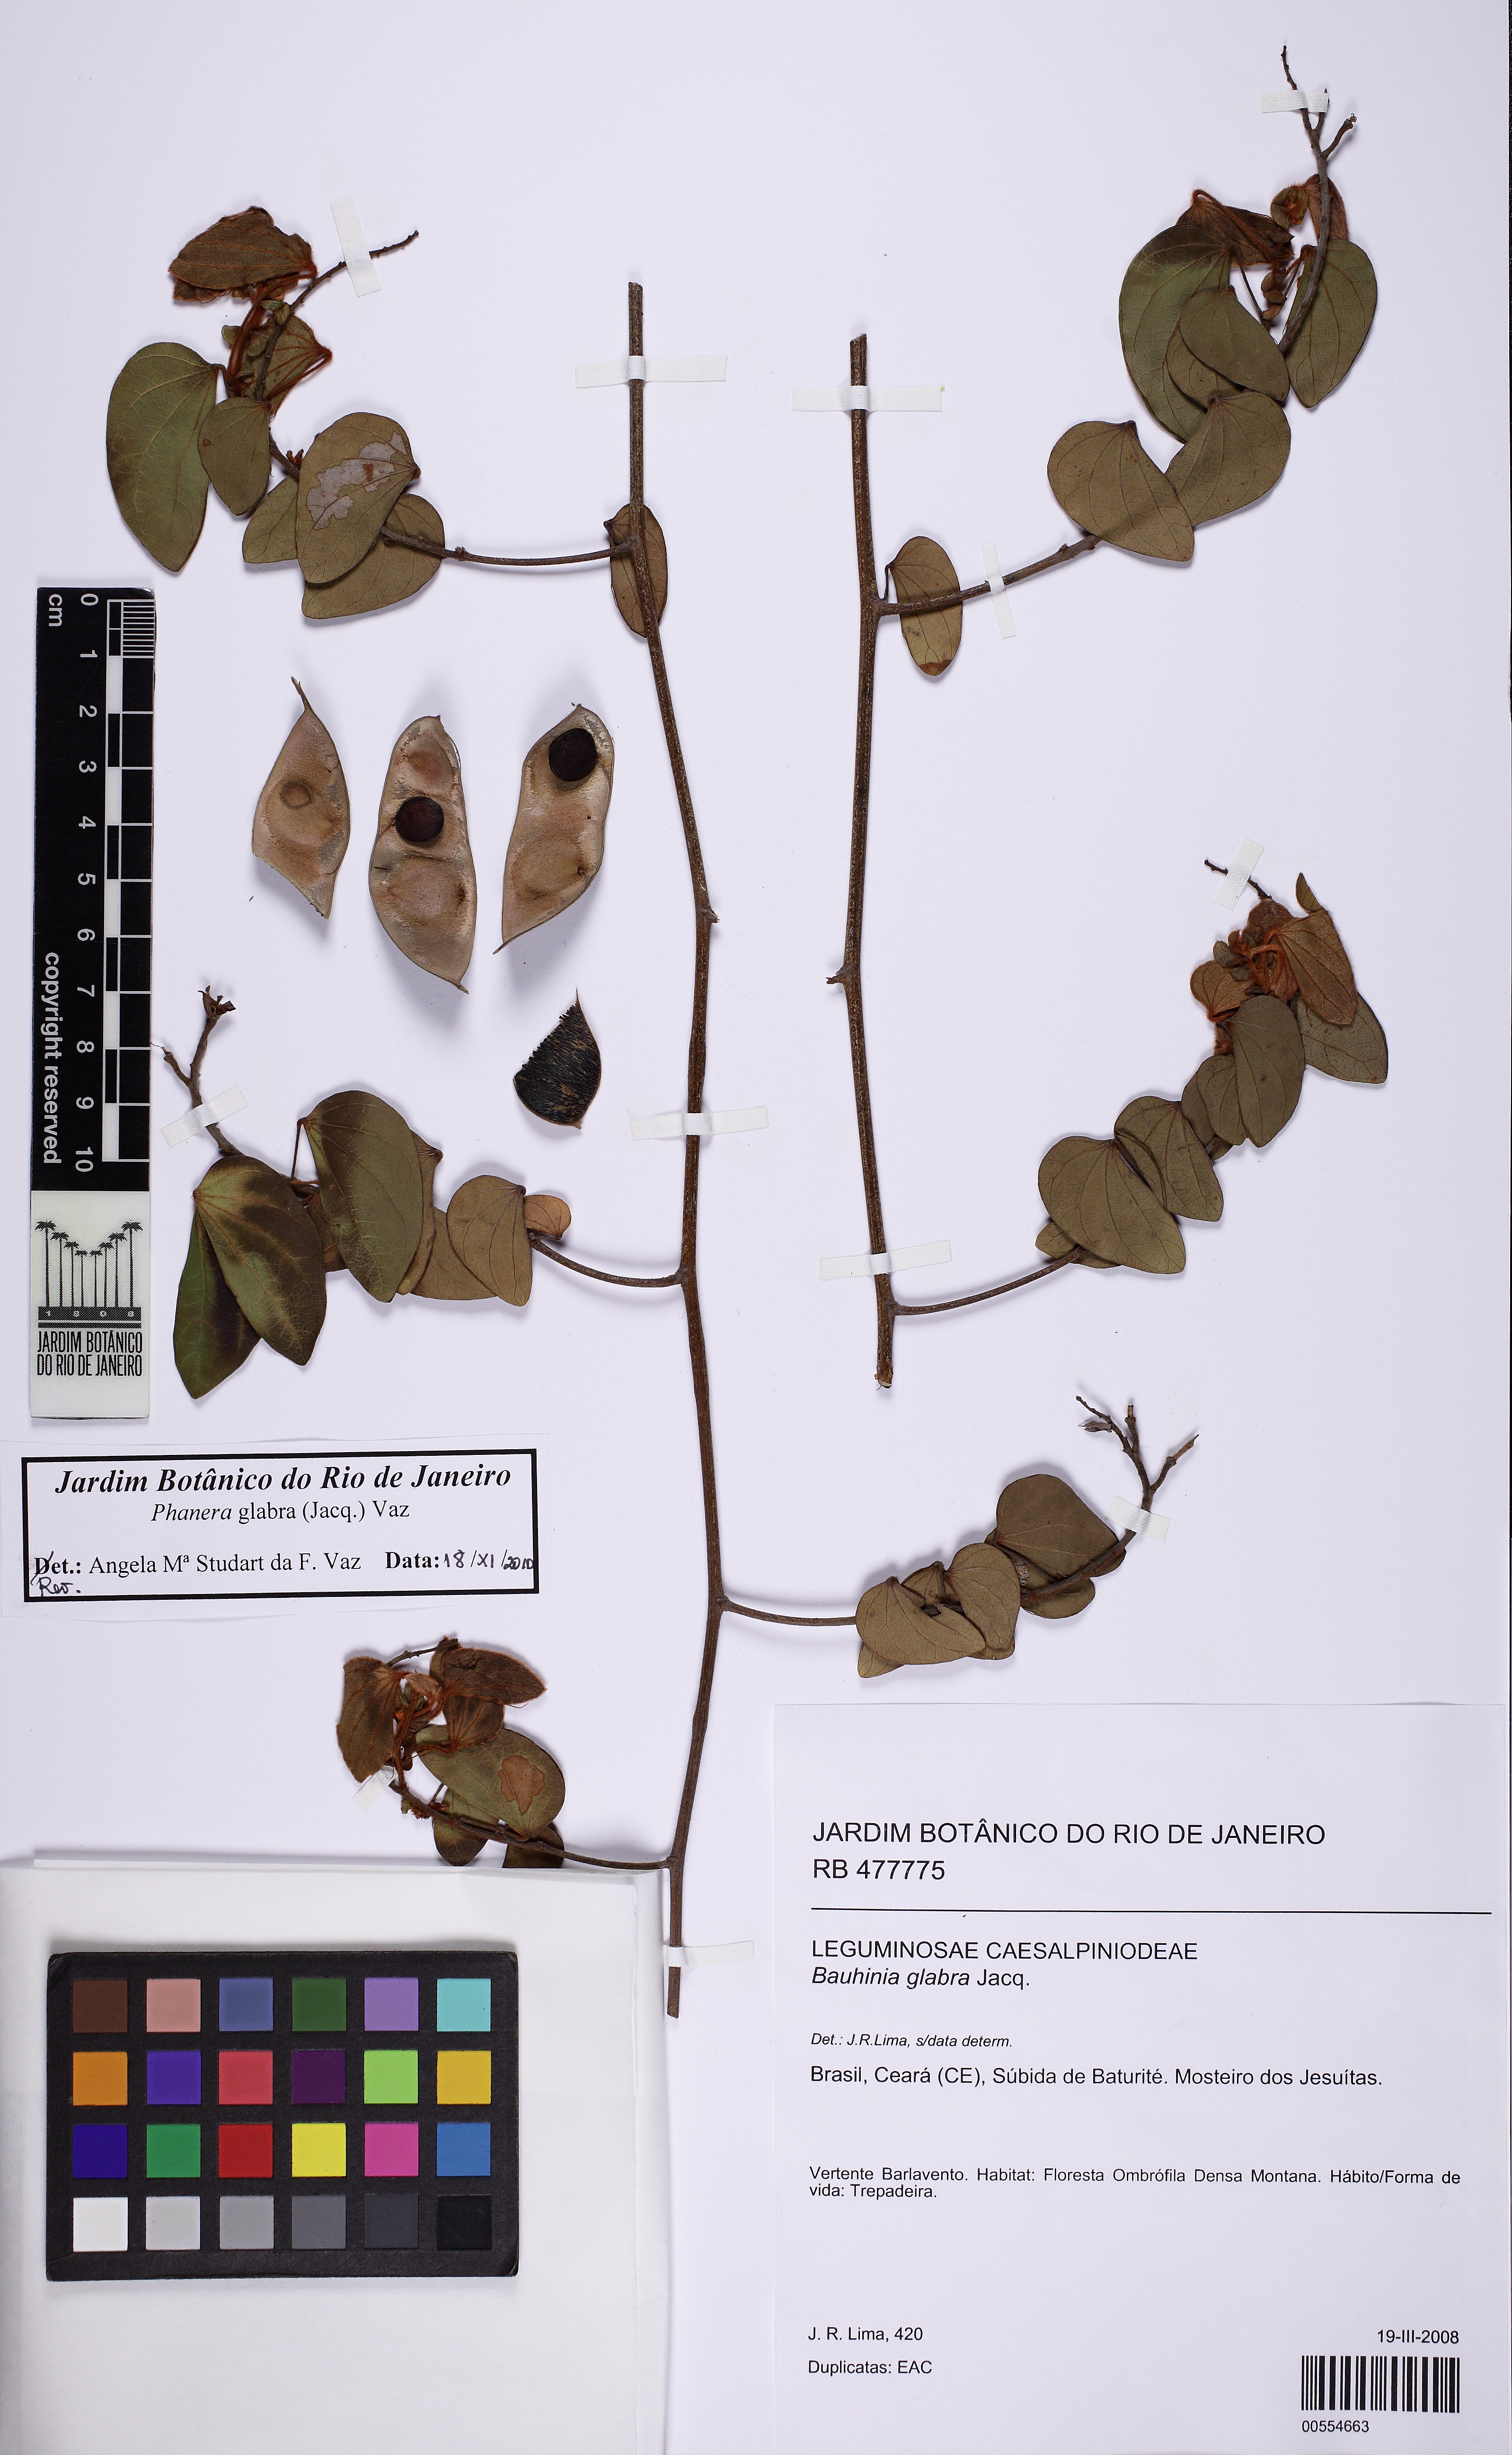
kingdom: Plantae
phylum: Tracheophyta
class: Magnoliopsida
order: Fabales
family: Fabaceae
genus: Schnella
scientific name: Schnella glabra
